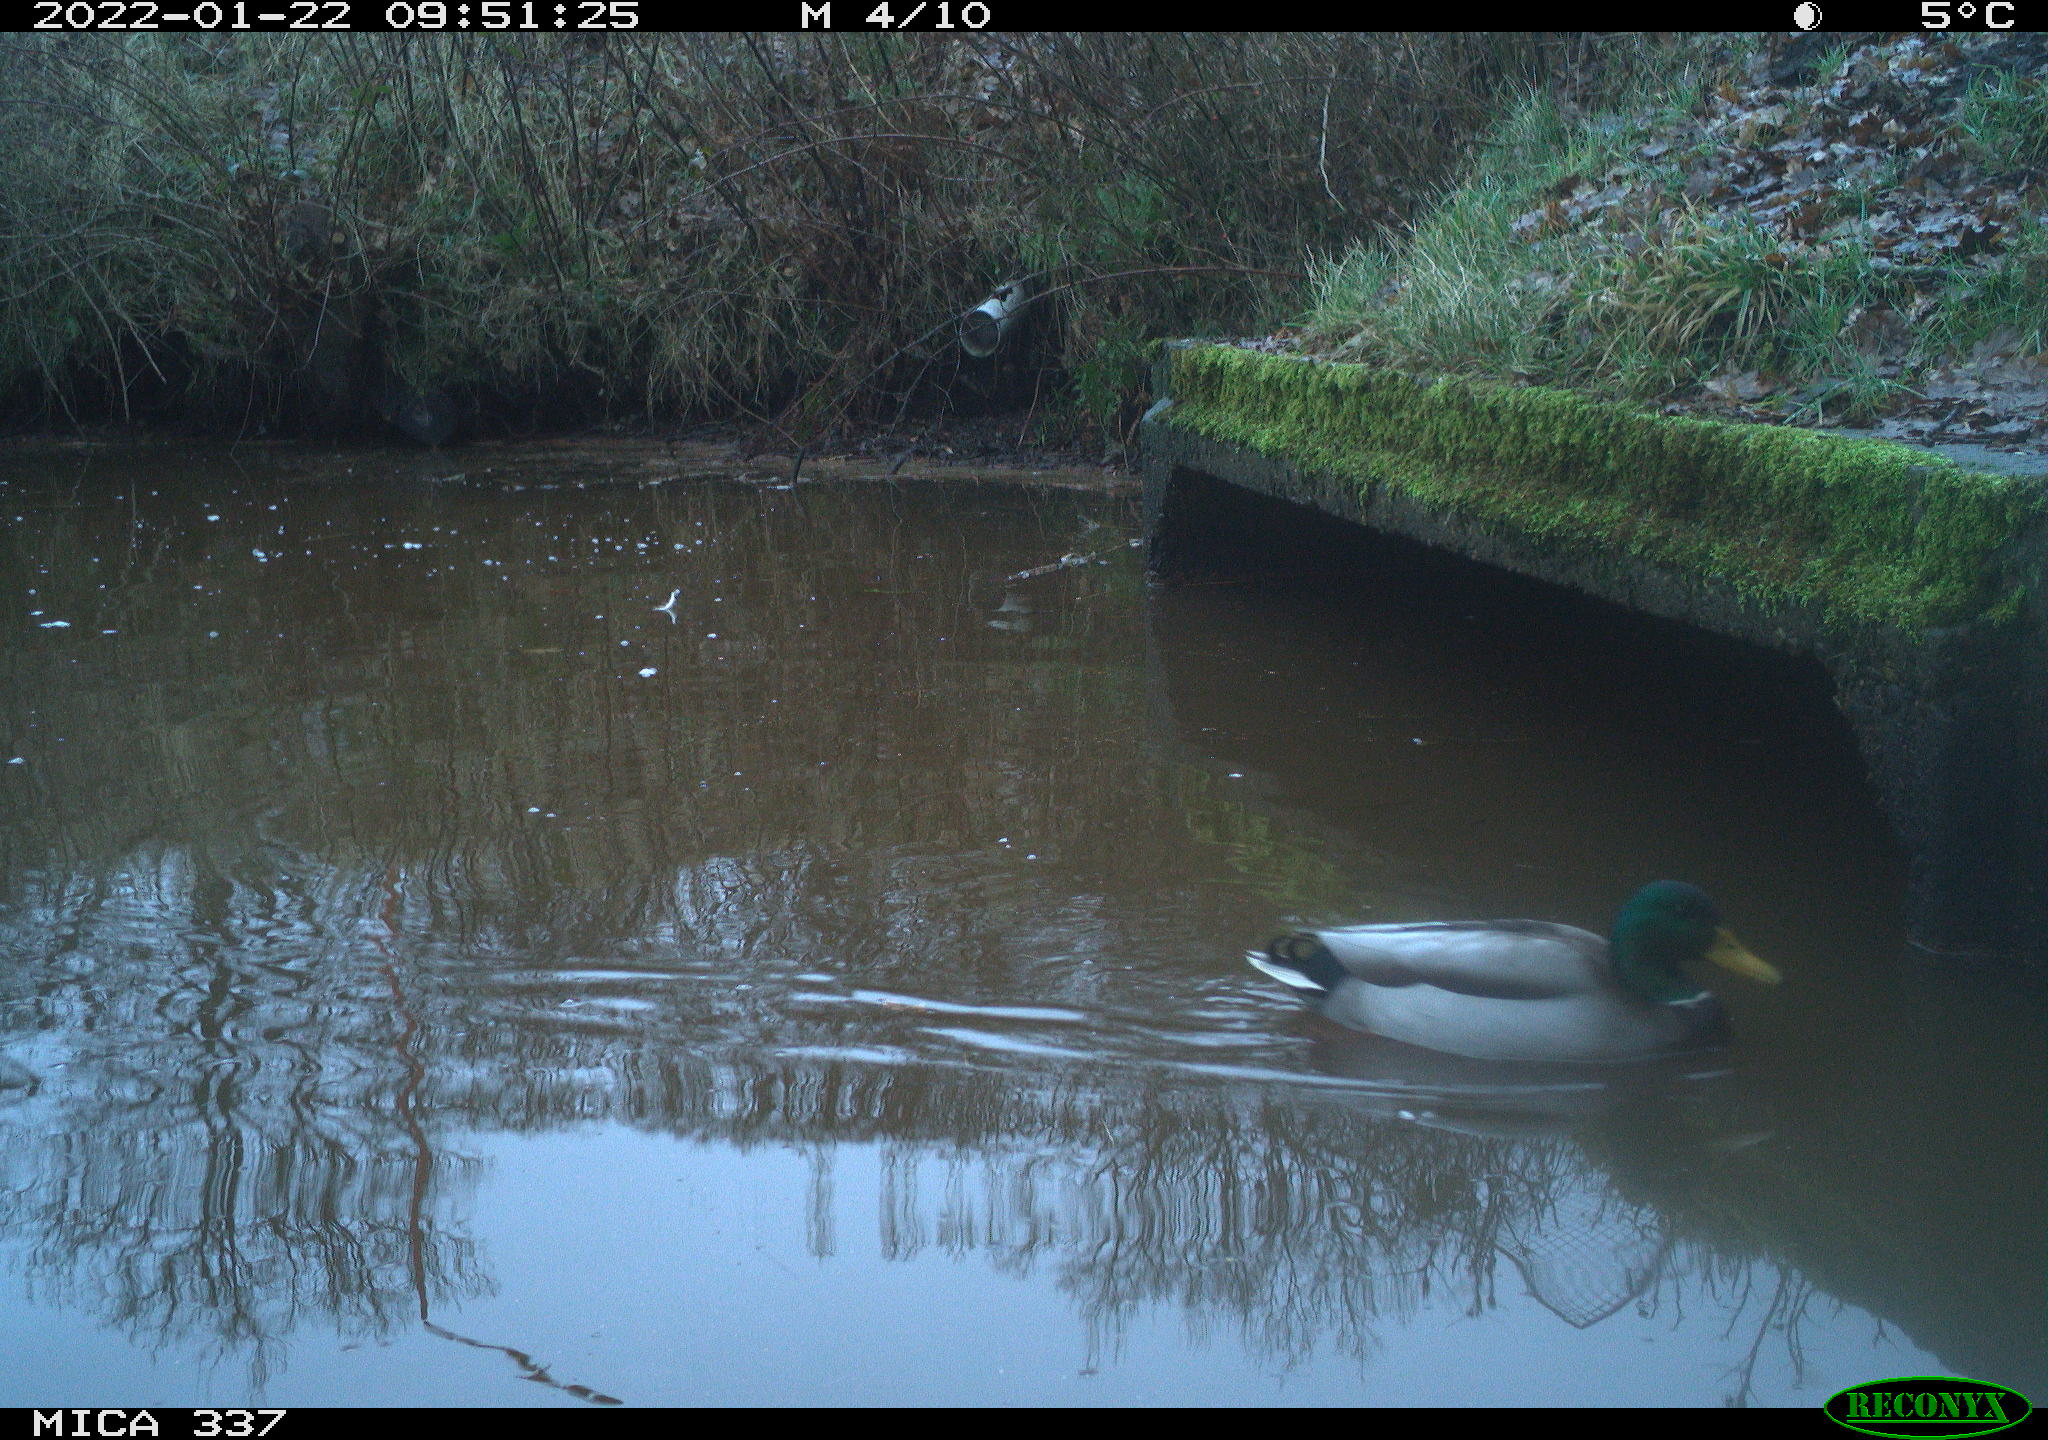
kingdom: Animalia
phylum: Chordata
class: Aves
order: Anseriformes
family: Anatidae
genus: Anas
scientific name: Anas platyrhynchos
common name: Mallard
